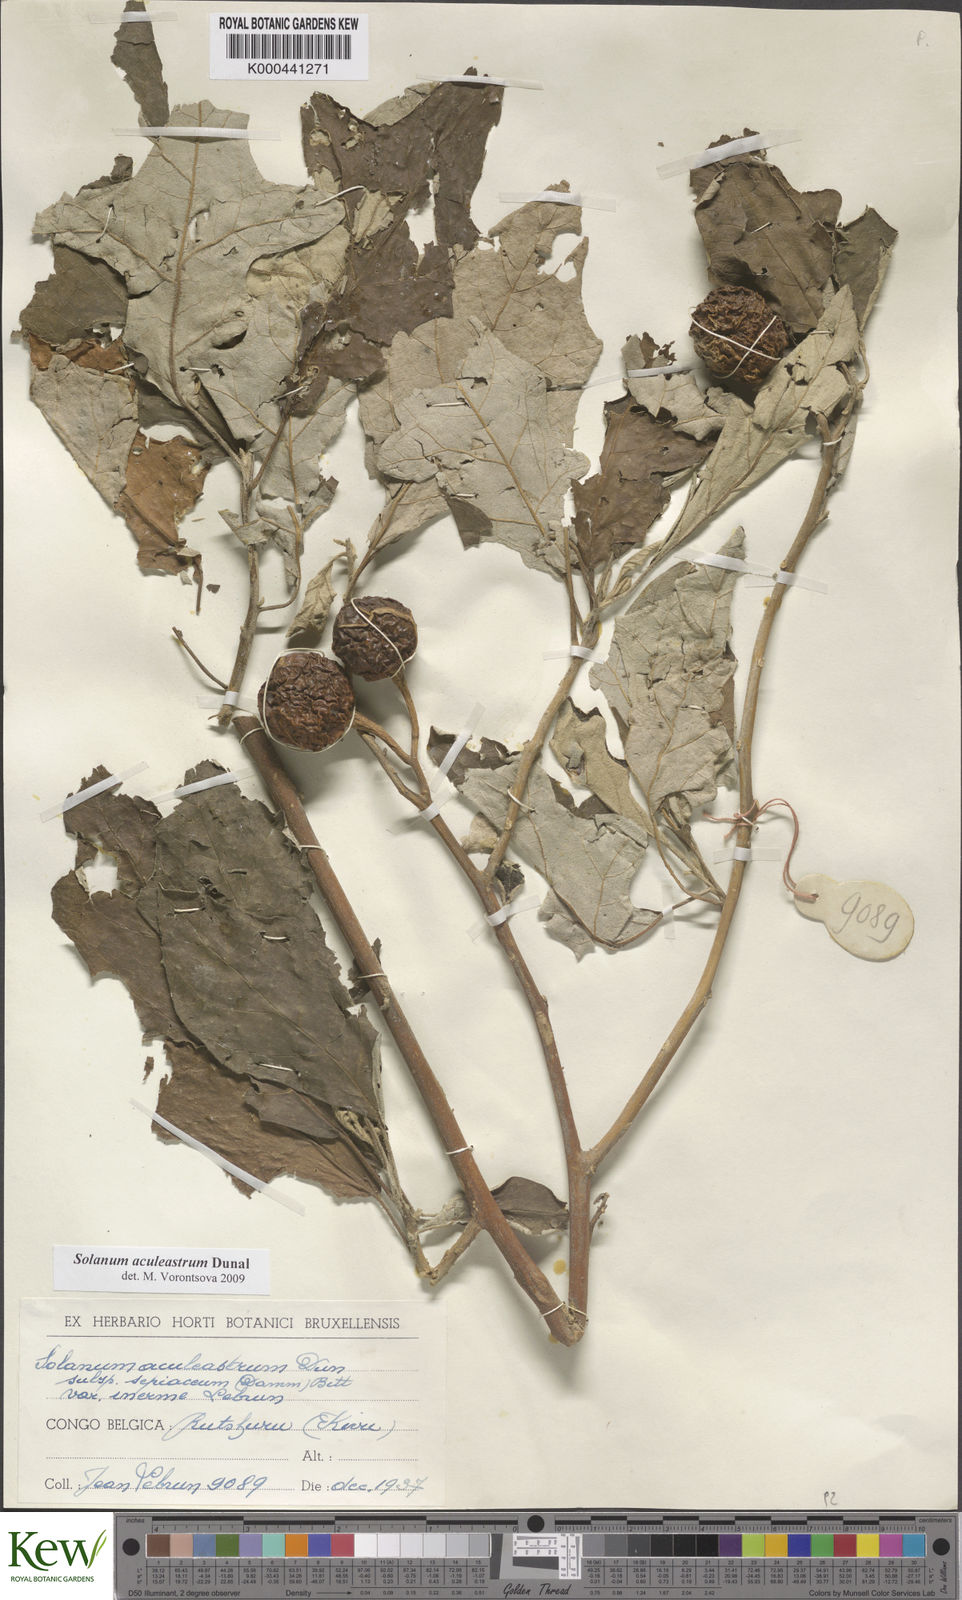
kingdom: Plantae
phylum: Tracheophyta
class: Magnoliopsida
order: Solanales
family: Solanaceae
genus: Solanum
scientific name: Solanum aculeastrum
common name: Goat bitter-apple
